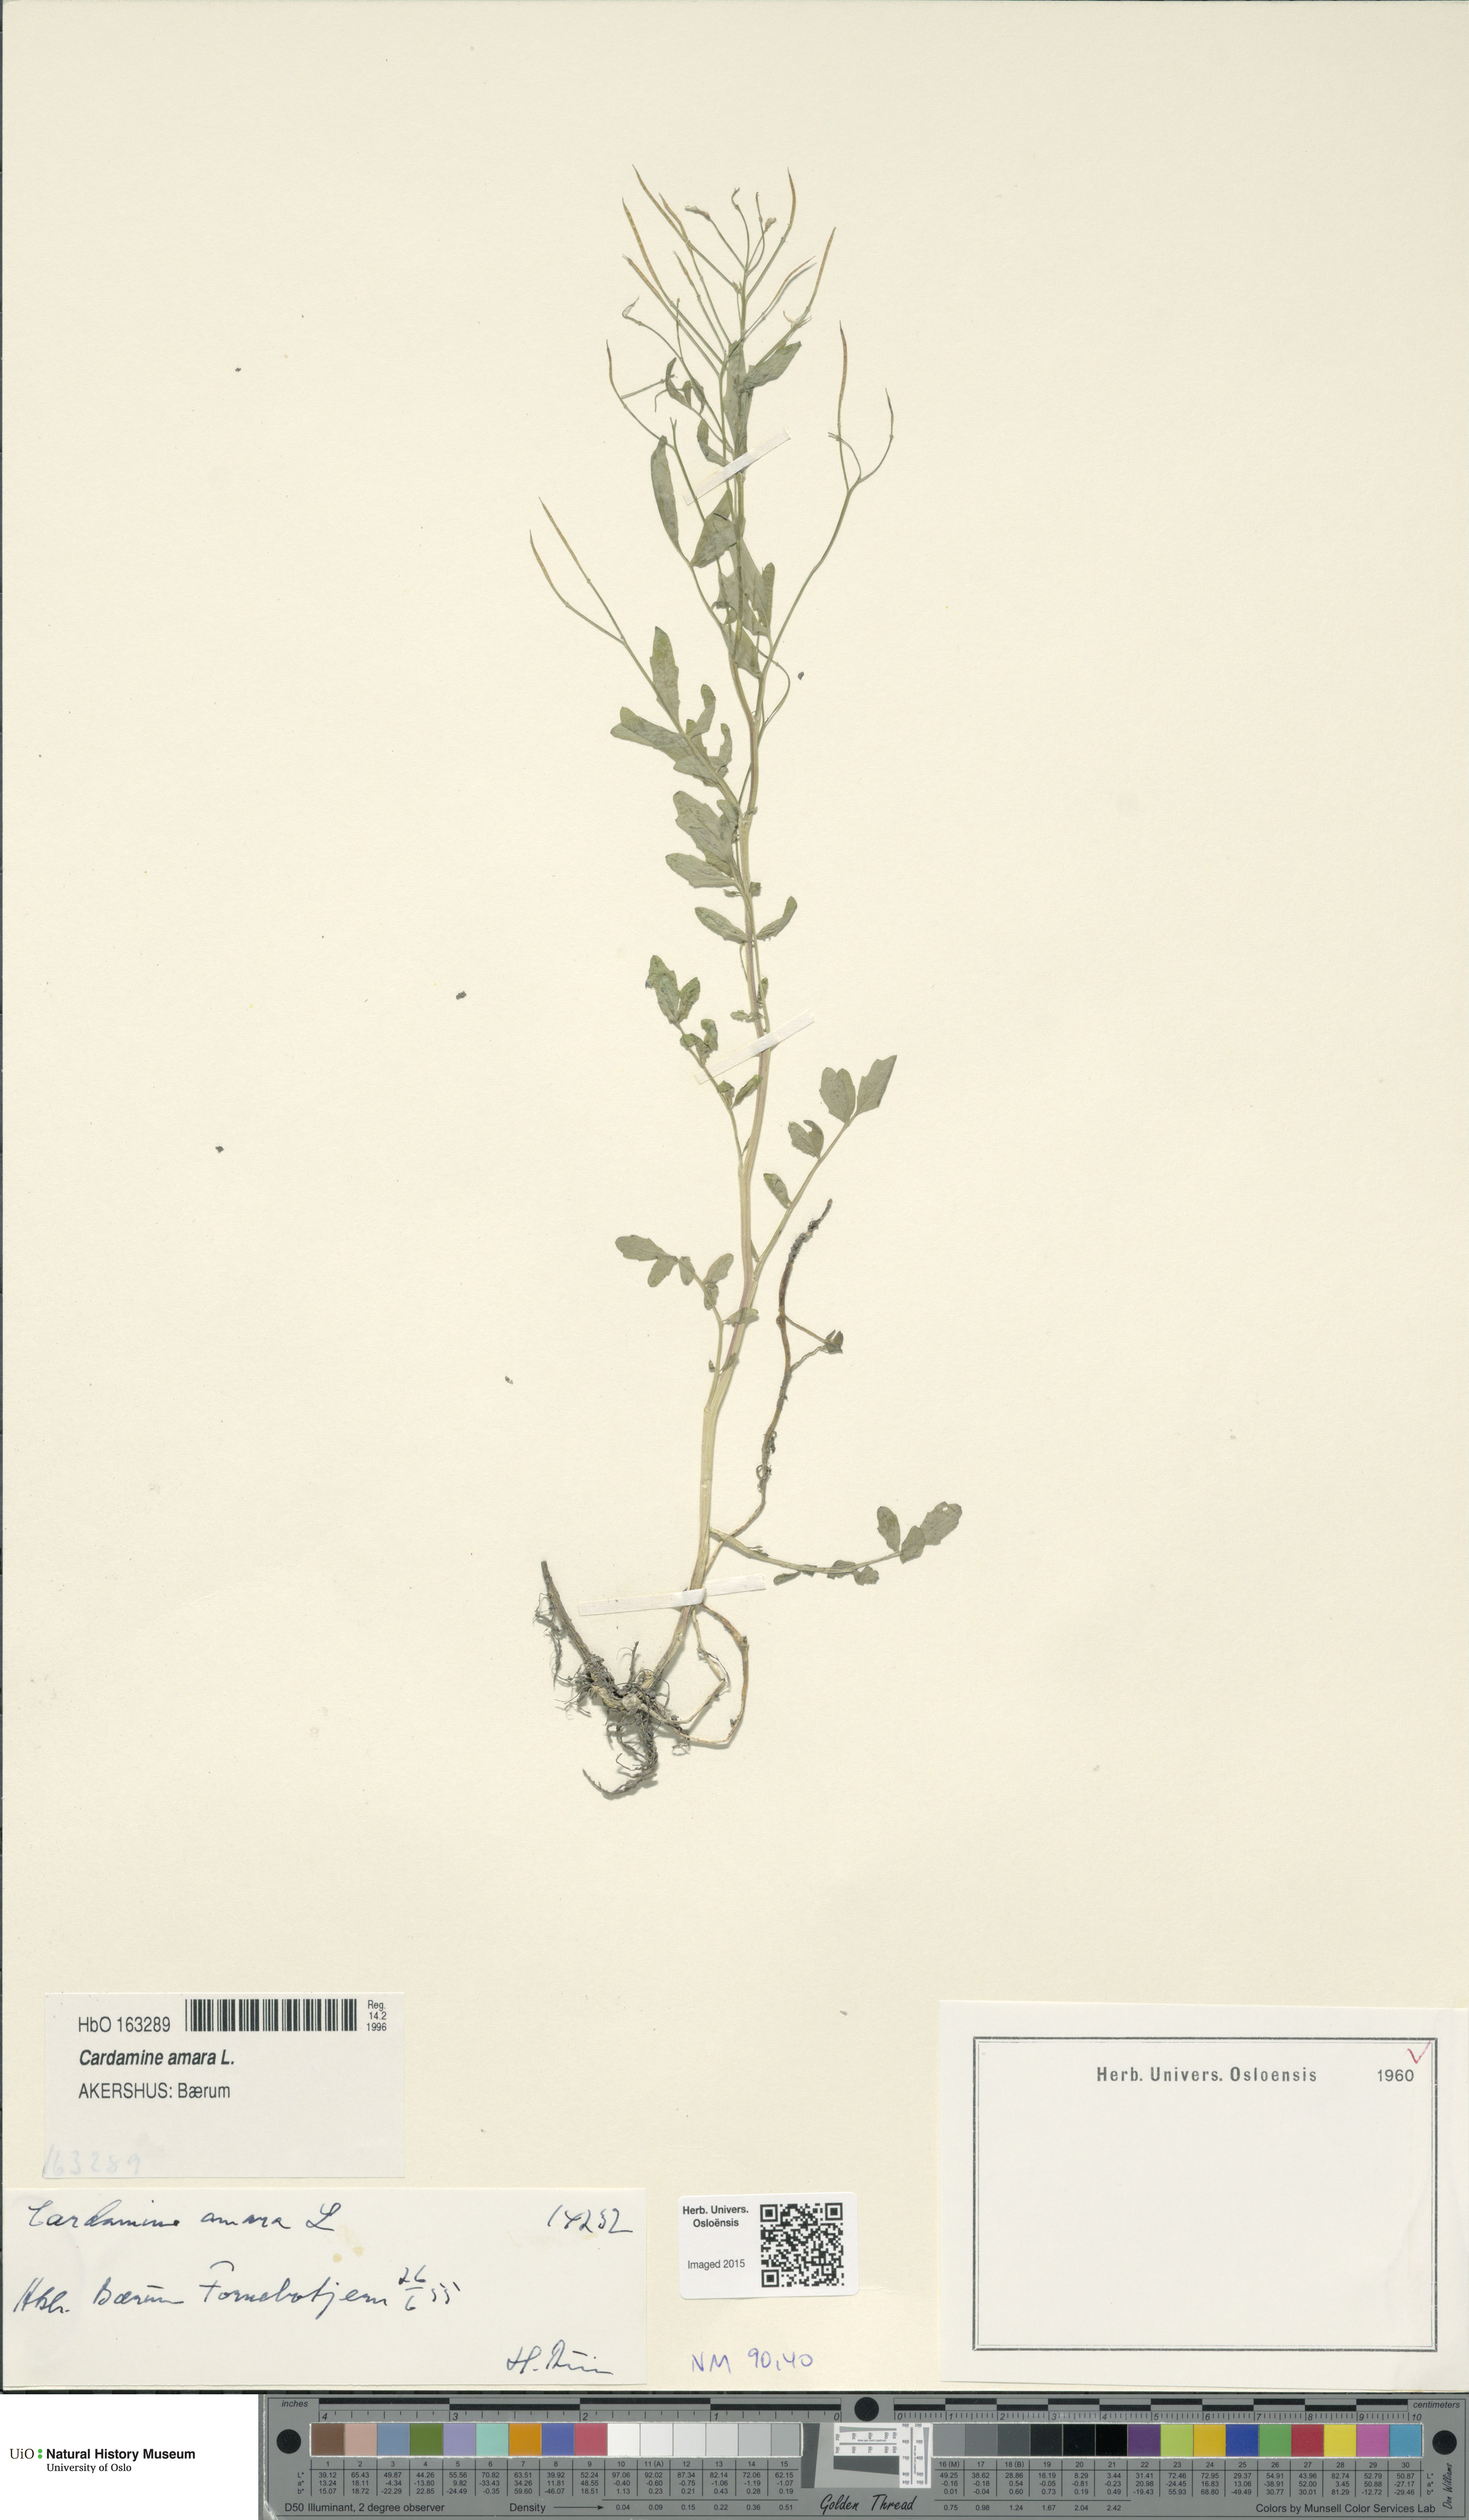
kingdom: Plantae
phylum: Tracheophyta
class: Magnoliopsida
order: Brassicales
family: Brassicaceae
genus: Cardamine
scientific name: Cardamine amara
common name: Large bitter-cress
